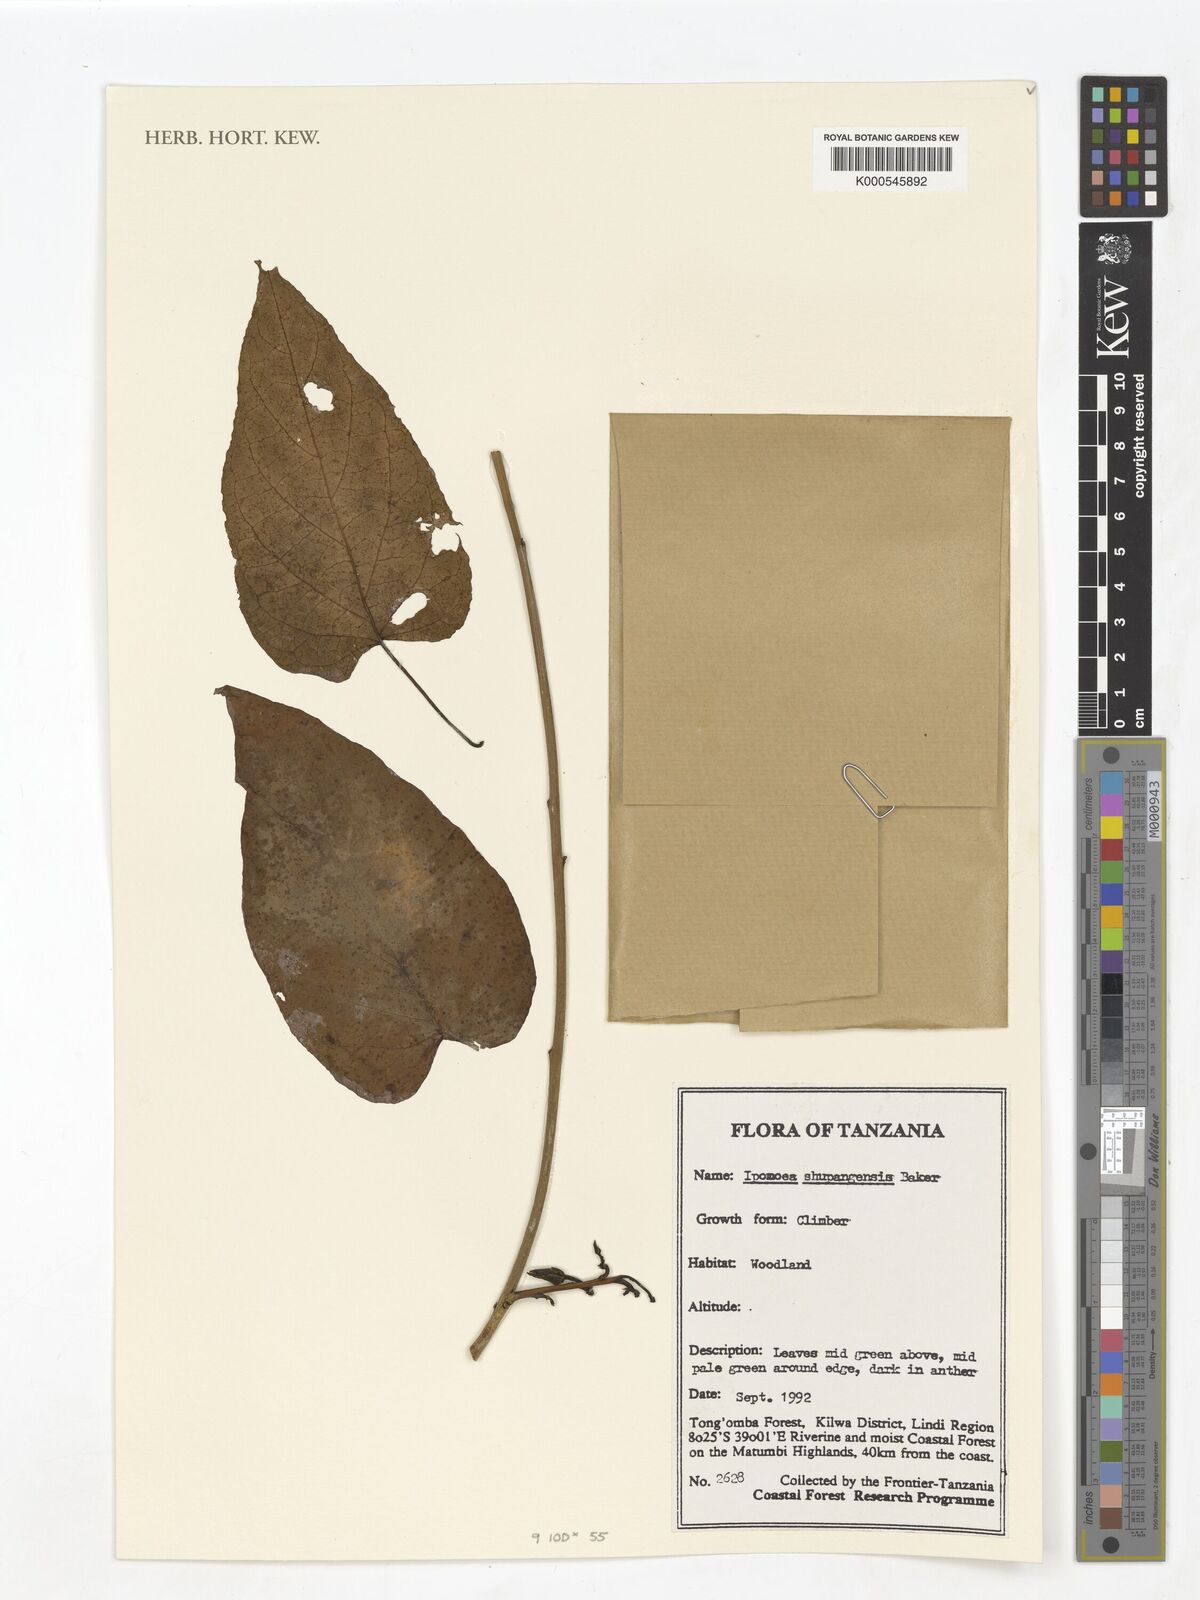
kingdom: Plantae
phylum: Tracheophyta
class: Magnoliopsida
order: Solanales
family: Convolvulaceae
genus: Ipomoea
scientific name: Ipomoea shupangensis
